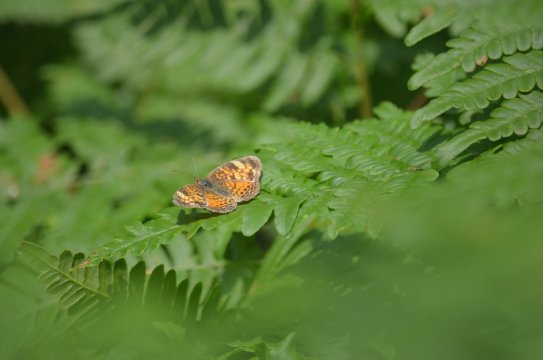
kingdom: Animalia
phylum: Arthropoda
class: Insecta
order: Lepidoptera
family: Nymphalidae
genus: Phyciodes
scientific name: Phyciodes tharos
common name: Northern Crescent
